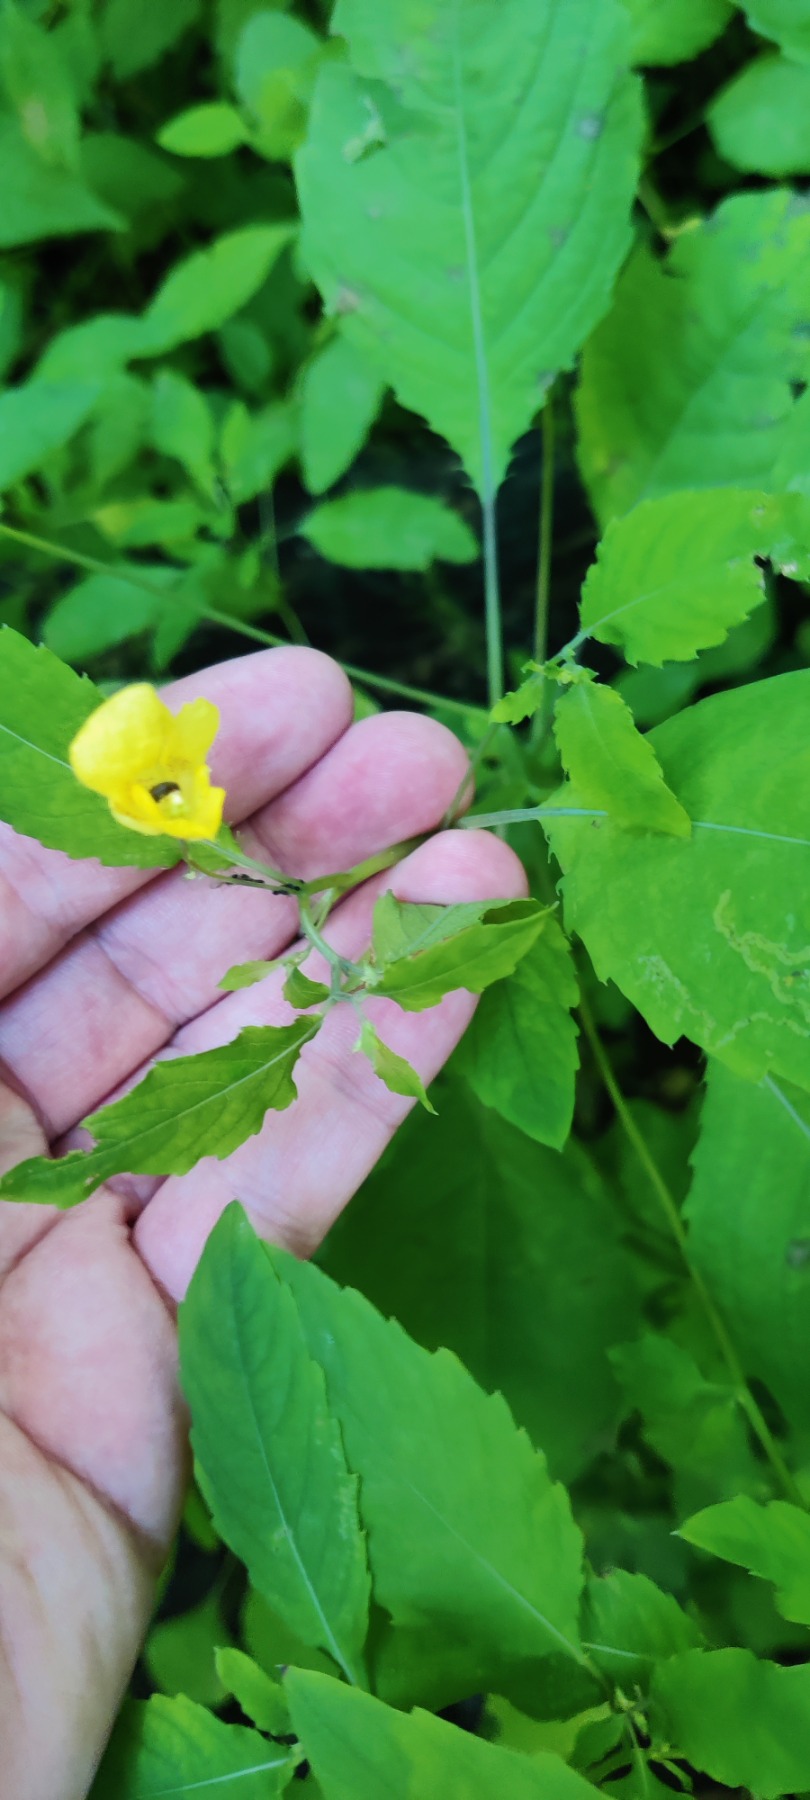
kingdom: Plantae
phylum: Tracheophyta
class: Magnoliopsida
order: Ericales
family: Balsaminaceae
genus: Impatiens
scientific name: Impatiens noli-tangere
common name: Spring-balsamin
